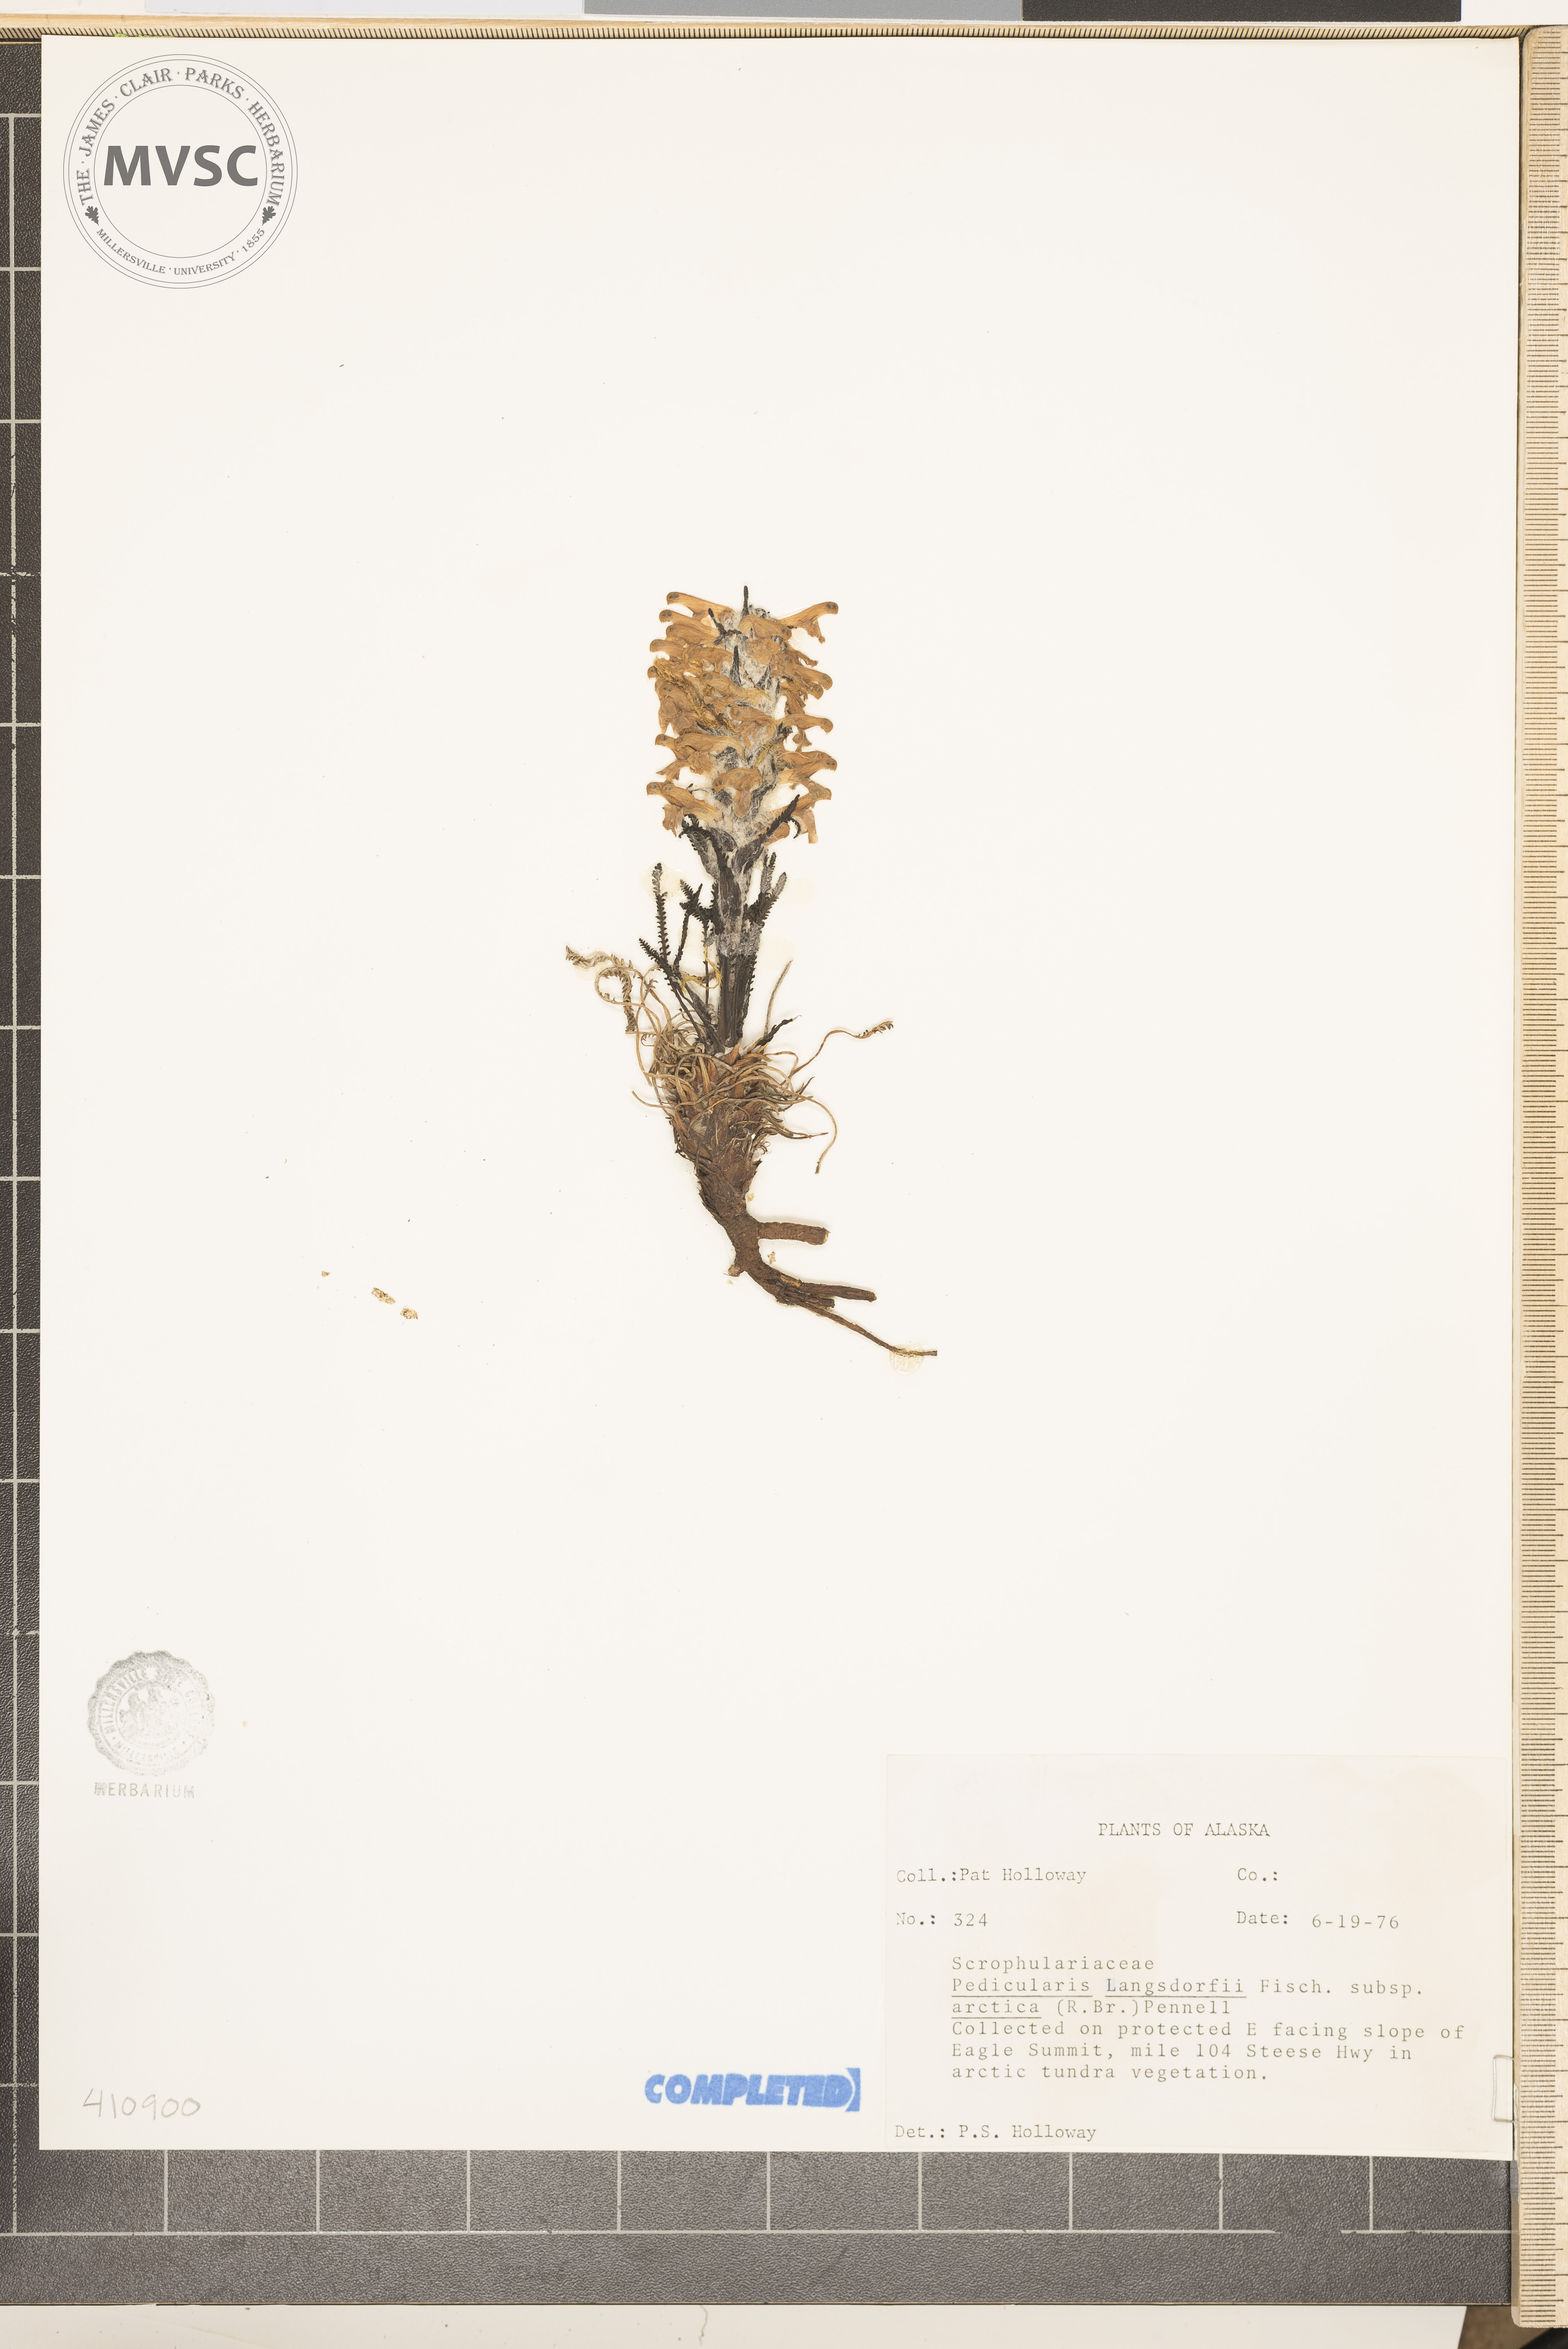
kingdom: Plantae
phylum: Tracheophyta
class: Magnoliopsida
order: Lamiales
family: Orobanchaceae
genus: Pedicularis
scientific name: Pedicularis langsdorffii
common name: Langsdorff's lousewort
